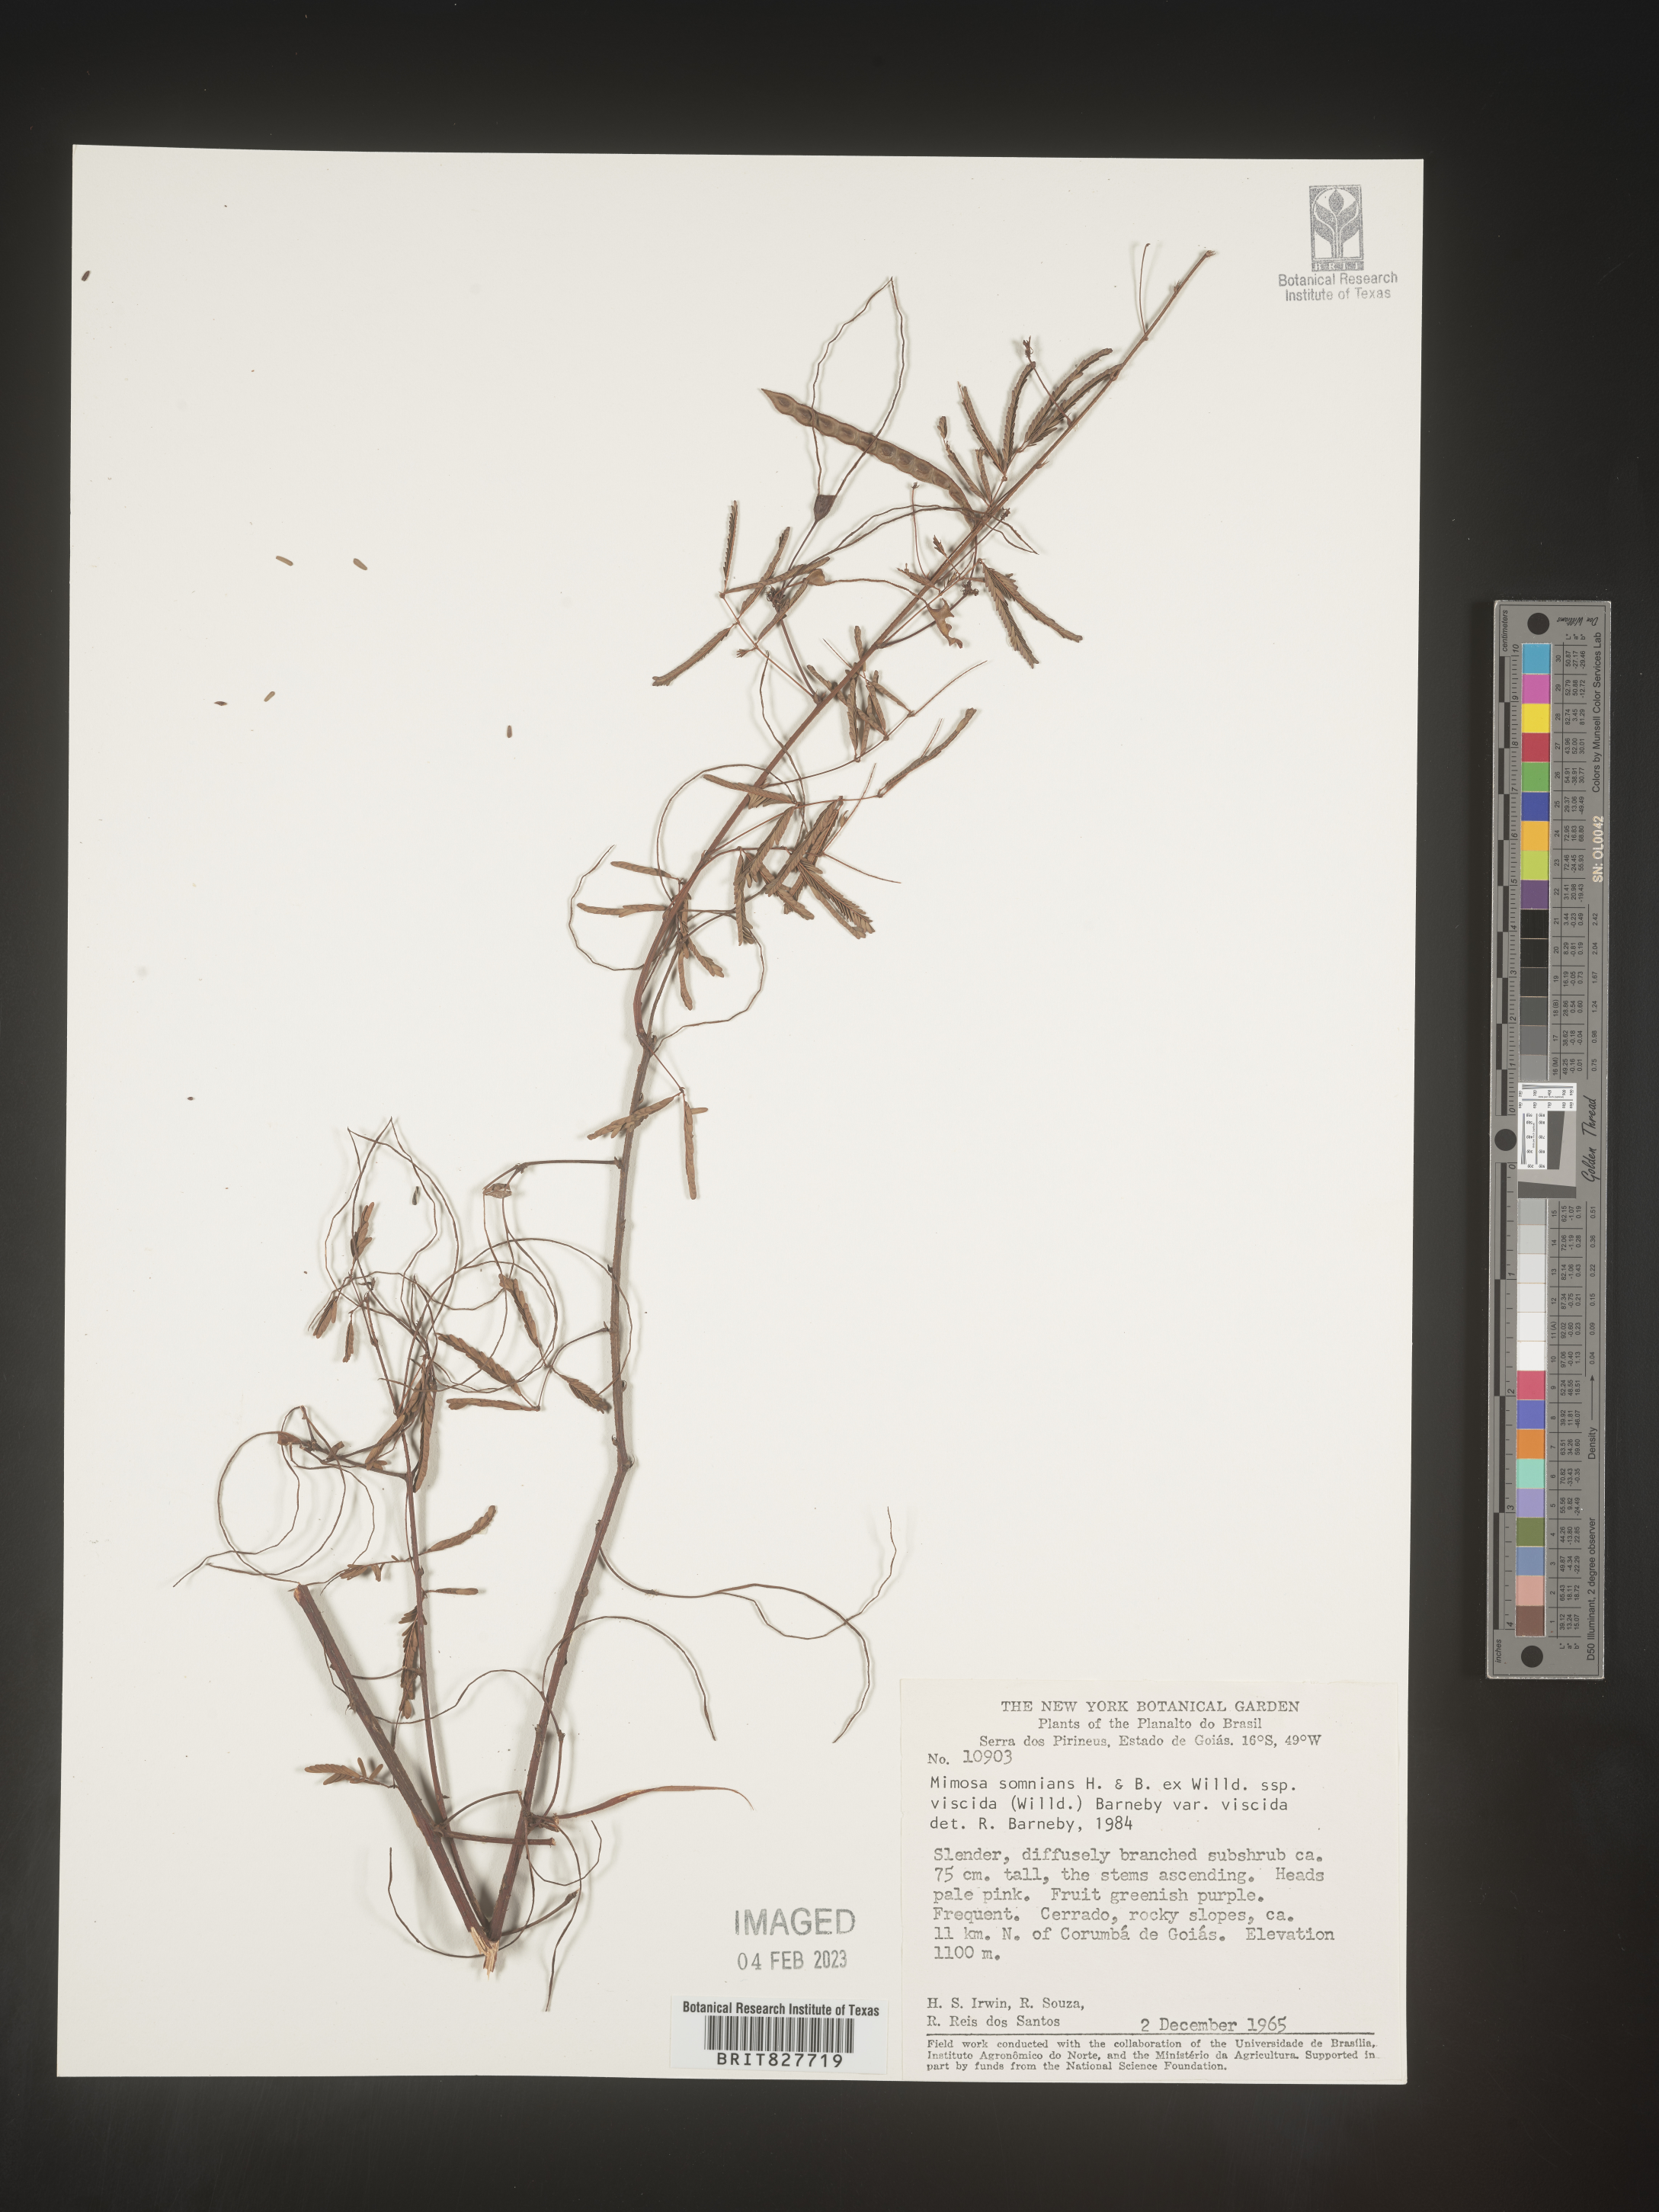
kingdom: Plantae
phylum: Tracheophyta
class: Magnoliopsida
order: Fabales
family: Fabaceae
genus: Mimosa
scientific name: Mimosa
